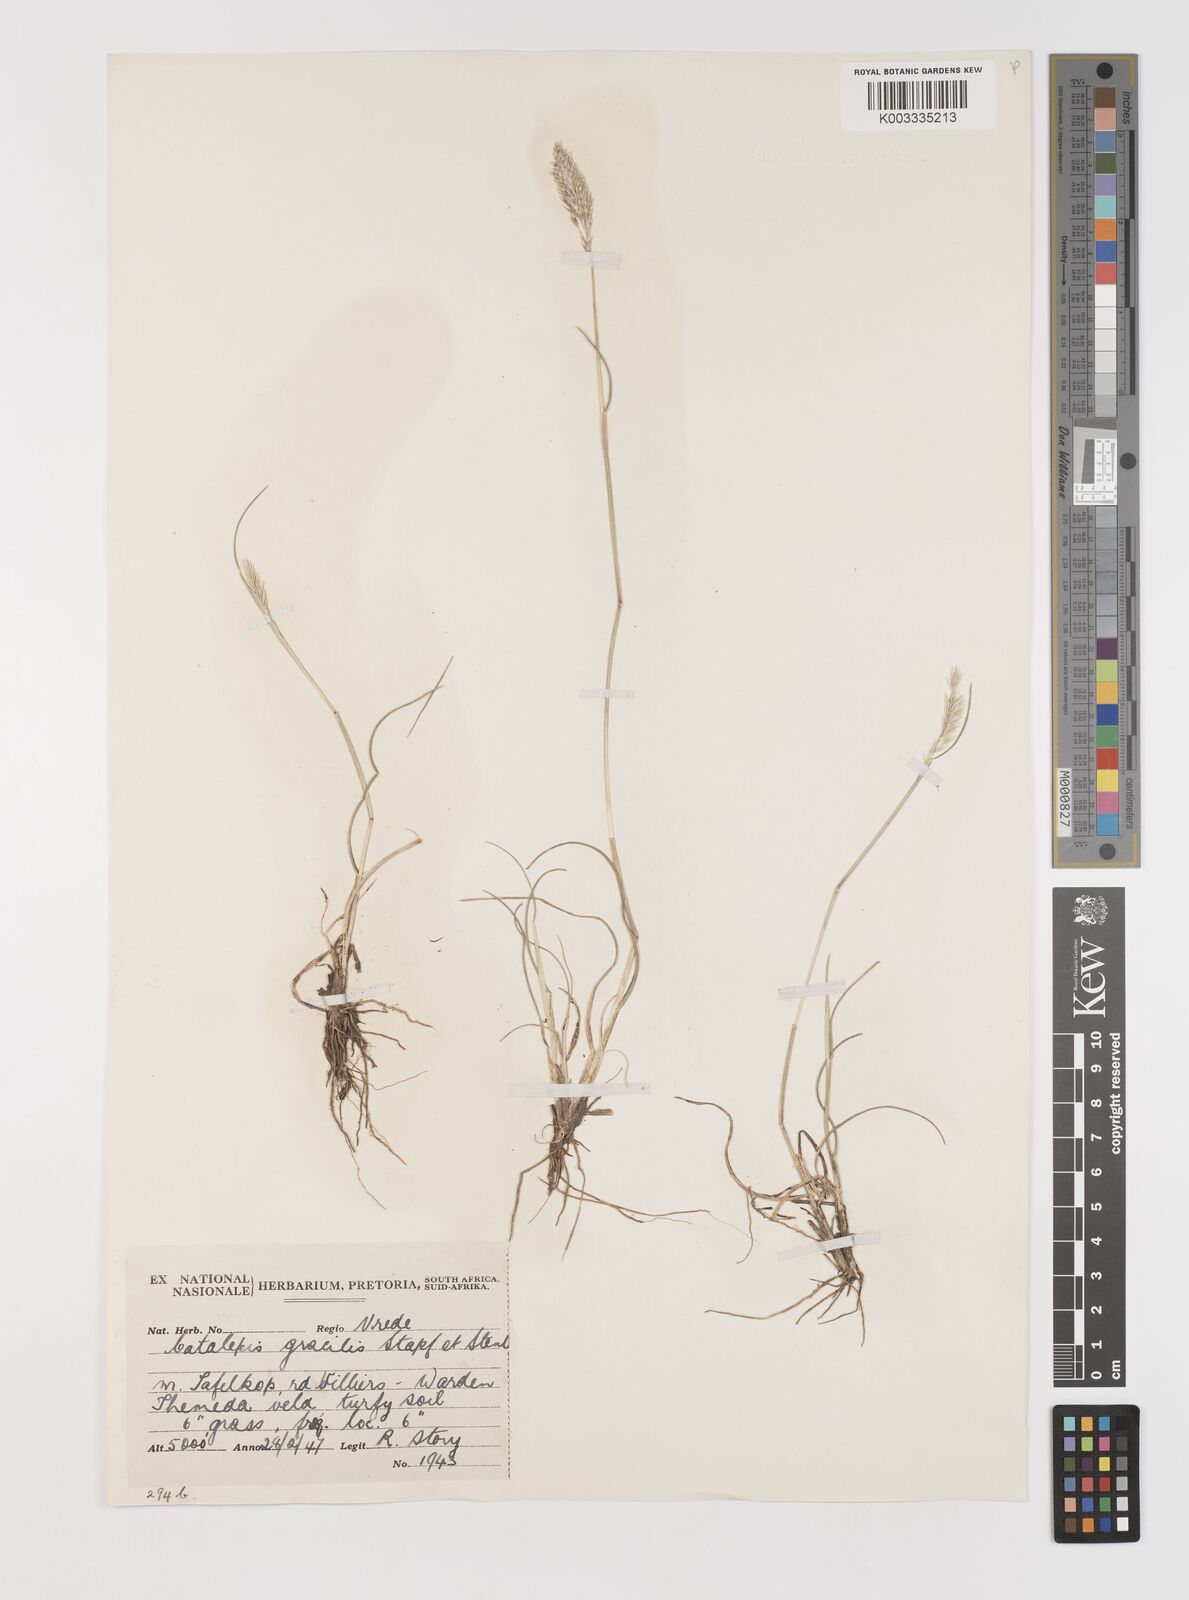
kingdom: Plantae
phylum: Tracheophyta
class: Liliopsida
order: Poales
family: Poaceae
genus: Catalepis
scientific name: Catalepis gracilis
